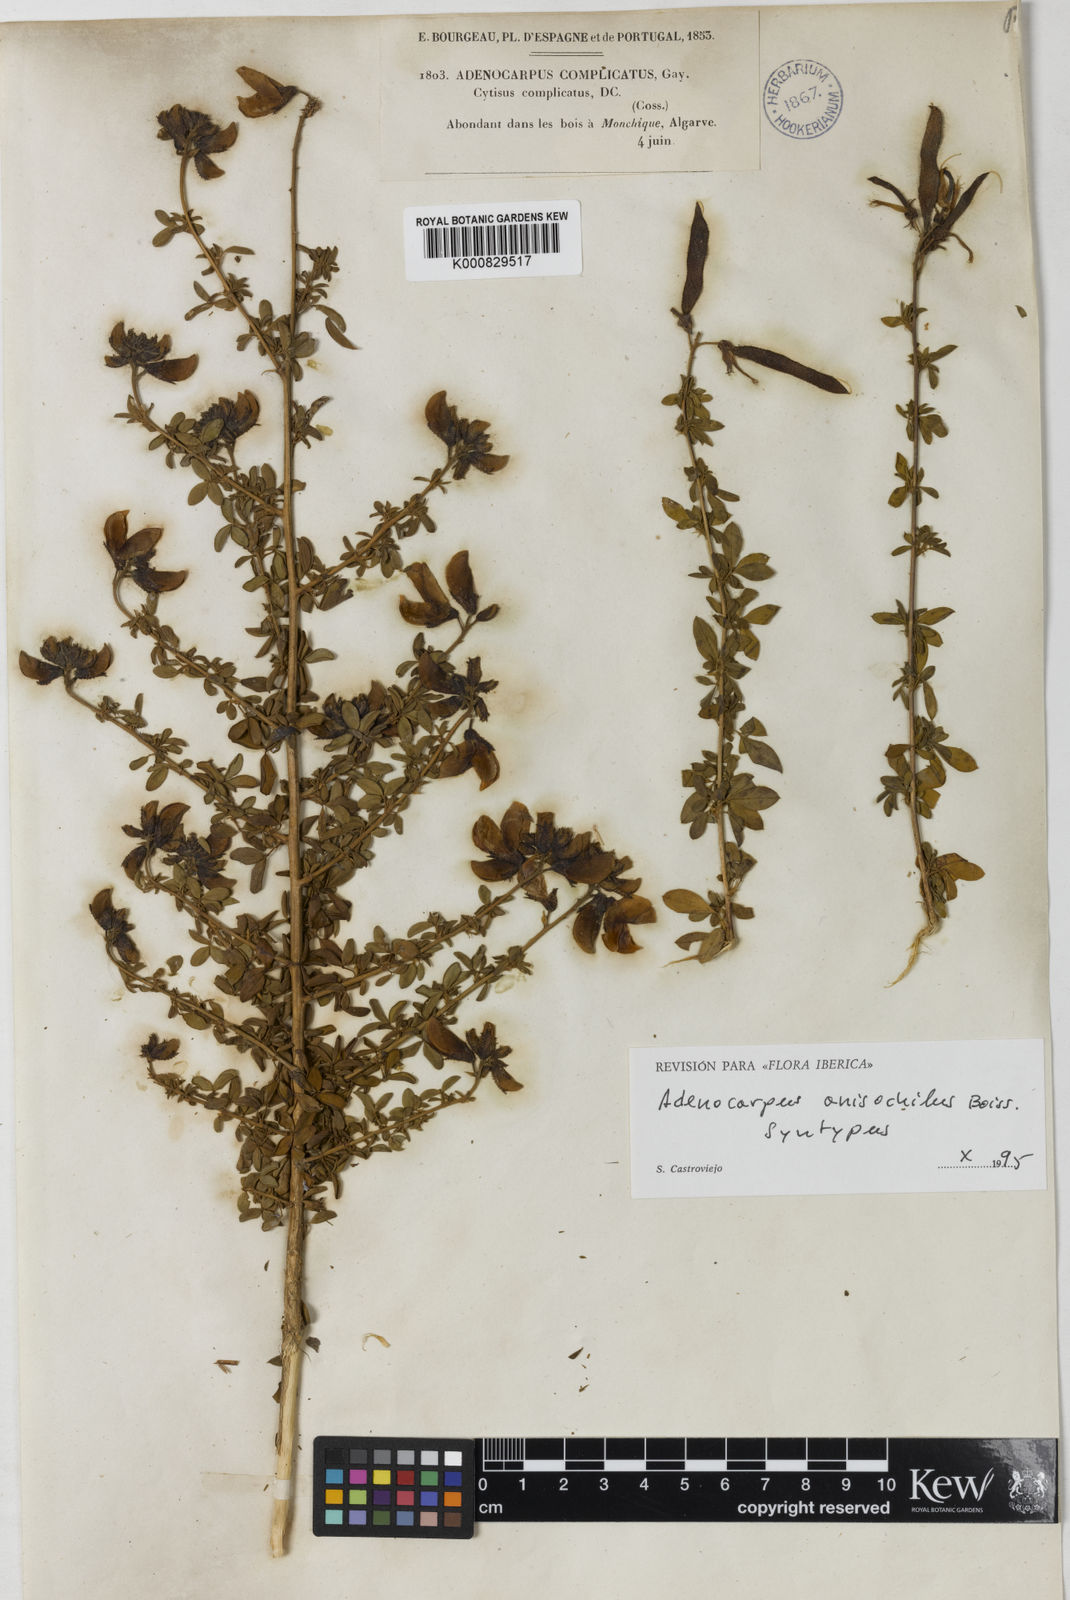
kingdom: Plantae
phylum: Tracheophyta
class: Magnoliopsida
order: Fabales
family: Fabaceae
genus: Adenocarpus
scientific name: Adenocarpus hispanicus
